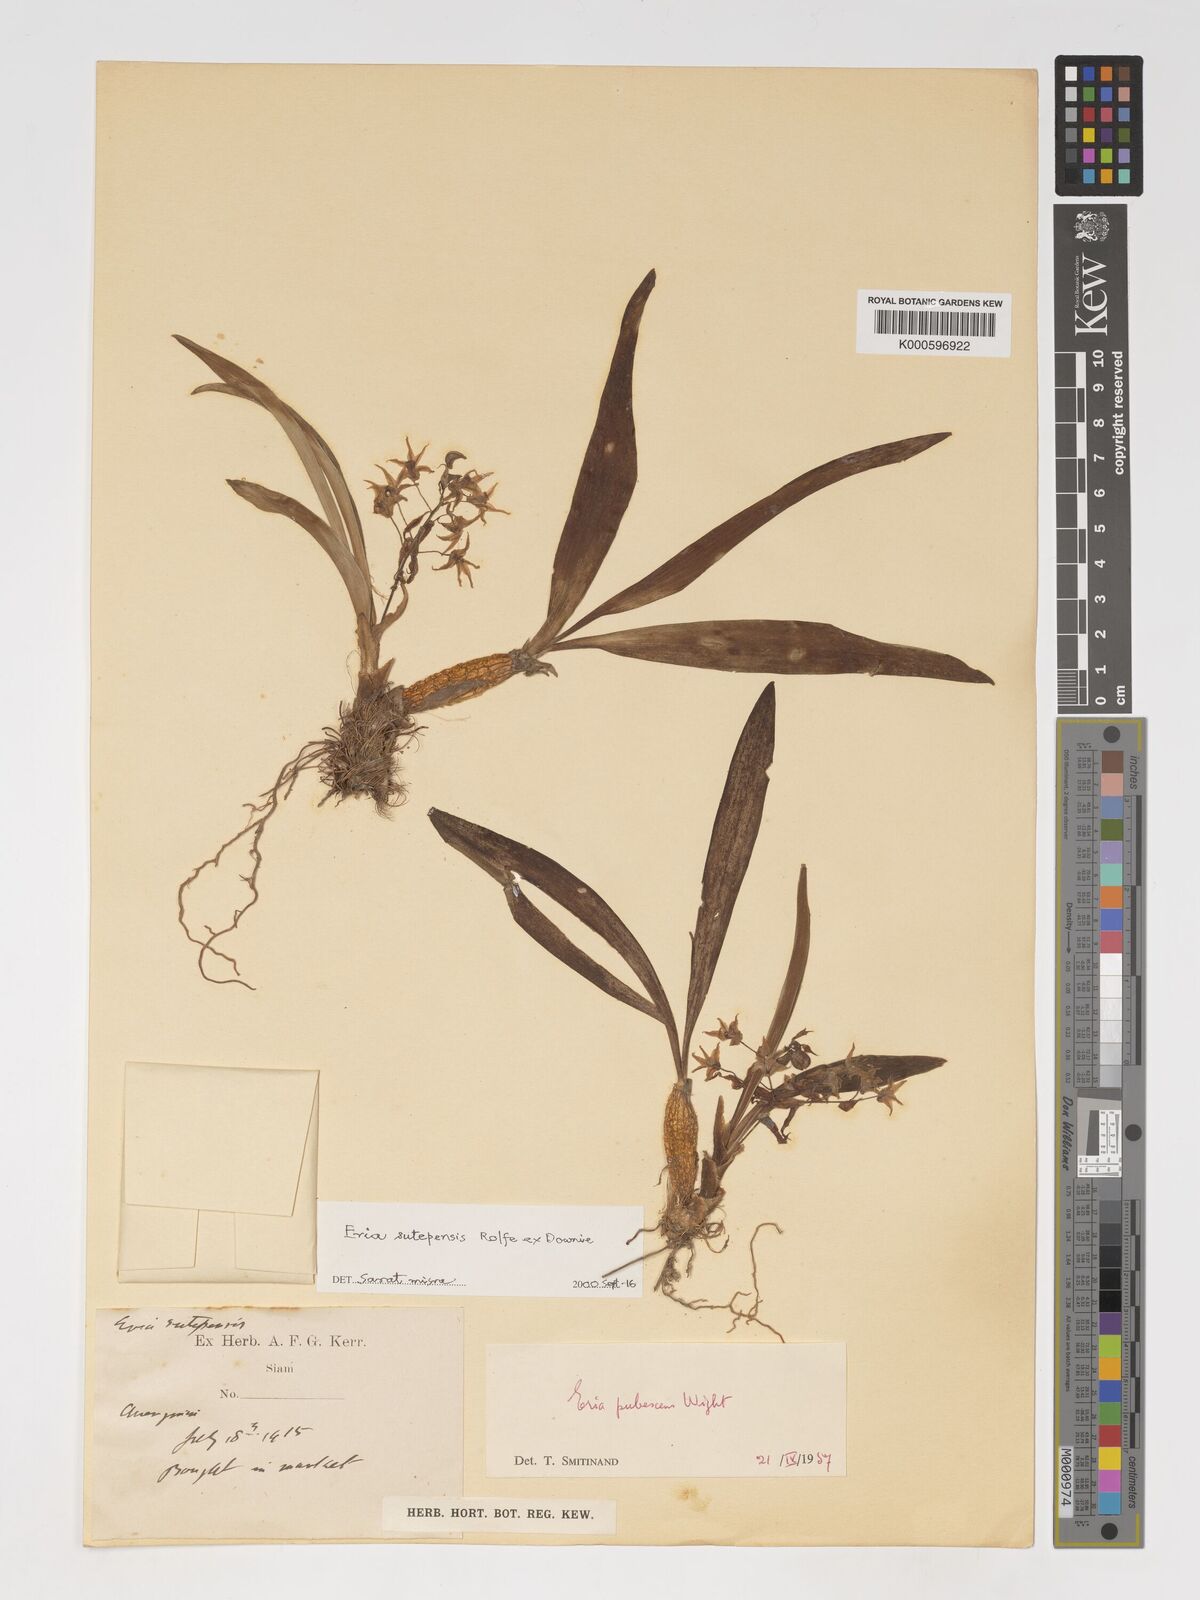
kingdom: Plantae
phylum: Tracheophyta
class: Liliopsida
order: Asparagales
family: Orchidaceae
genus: Pinalia
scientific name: Pinalia sutepensis
